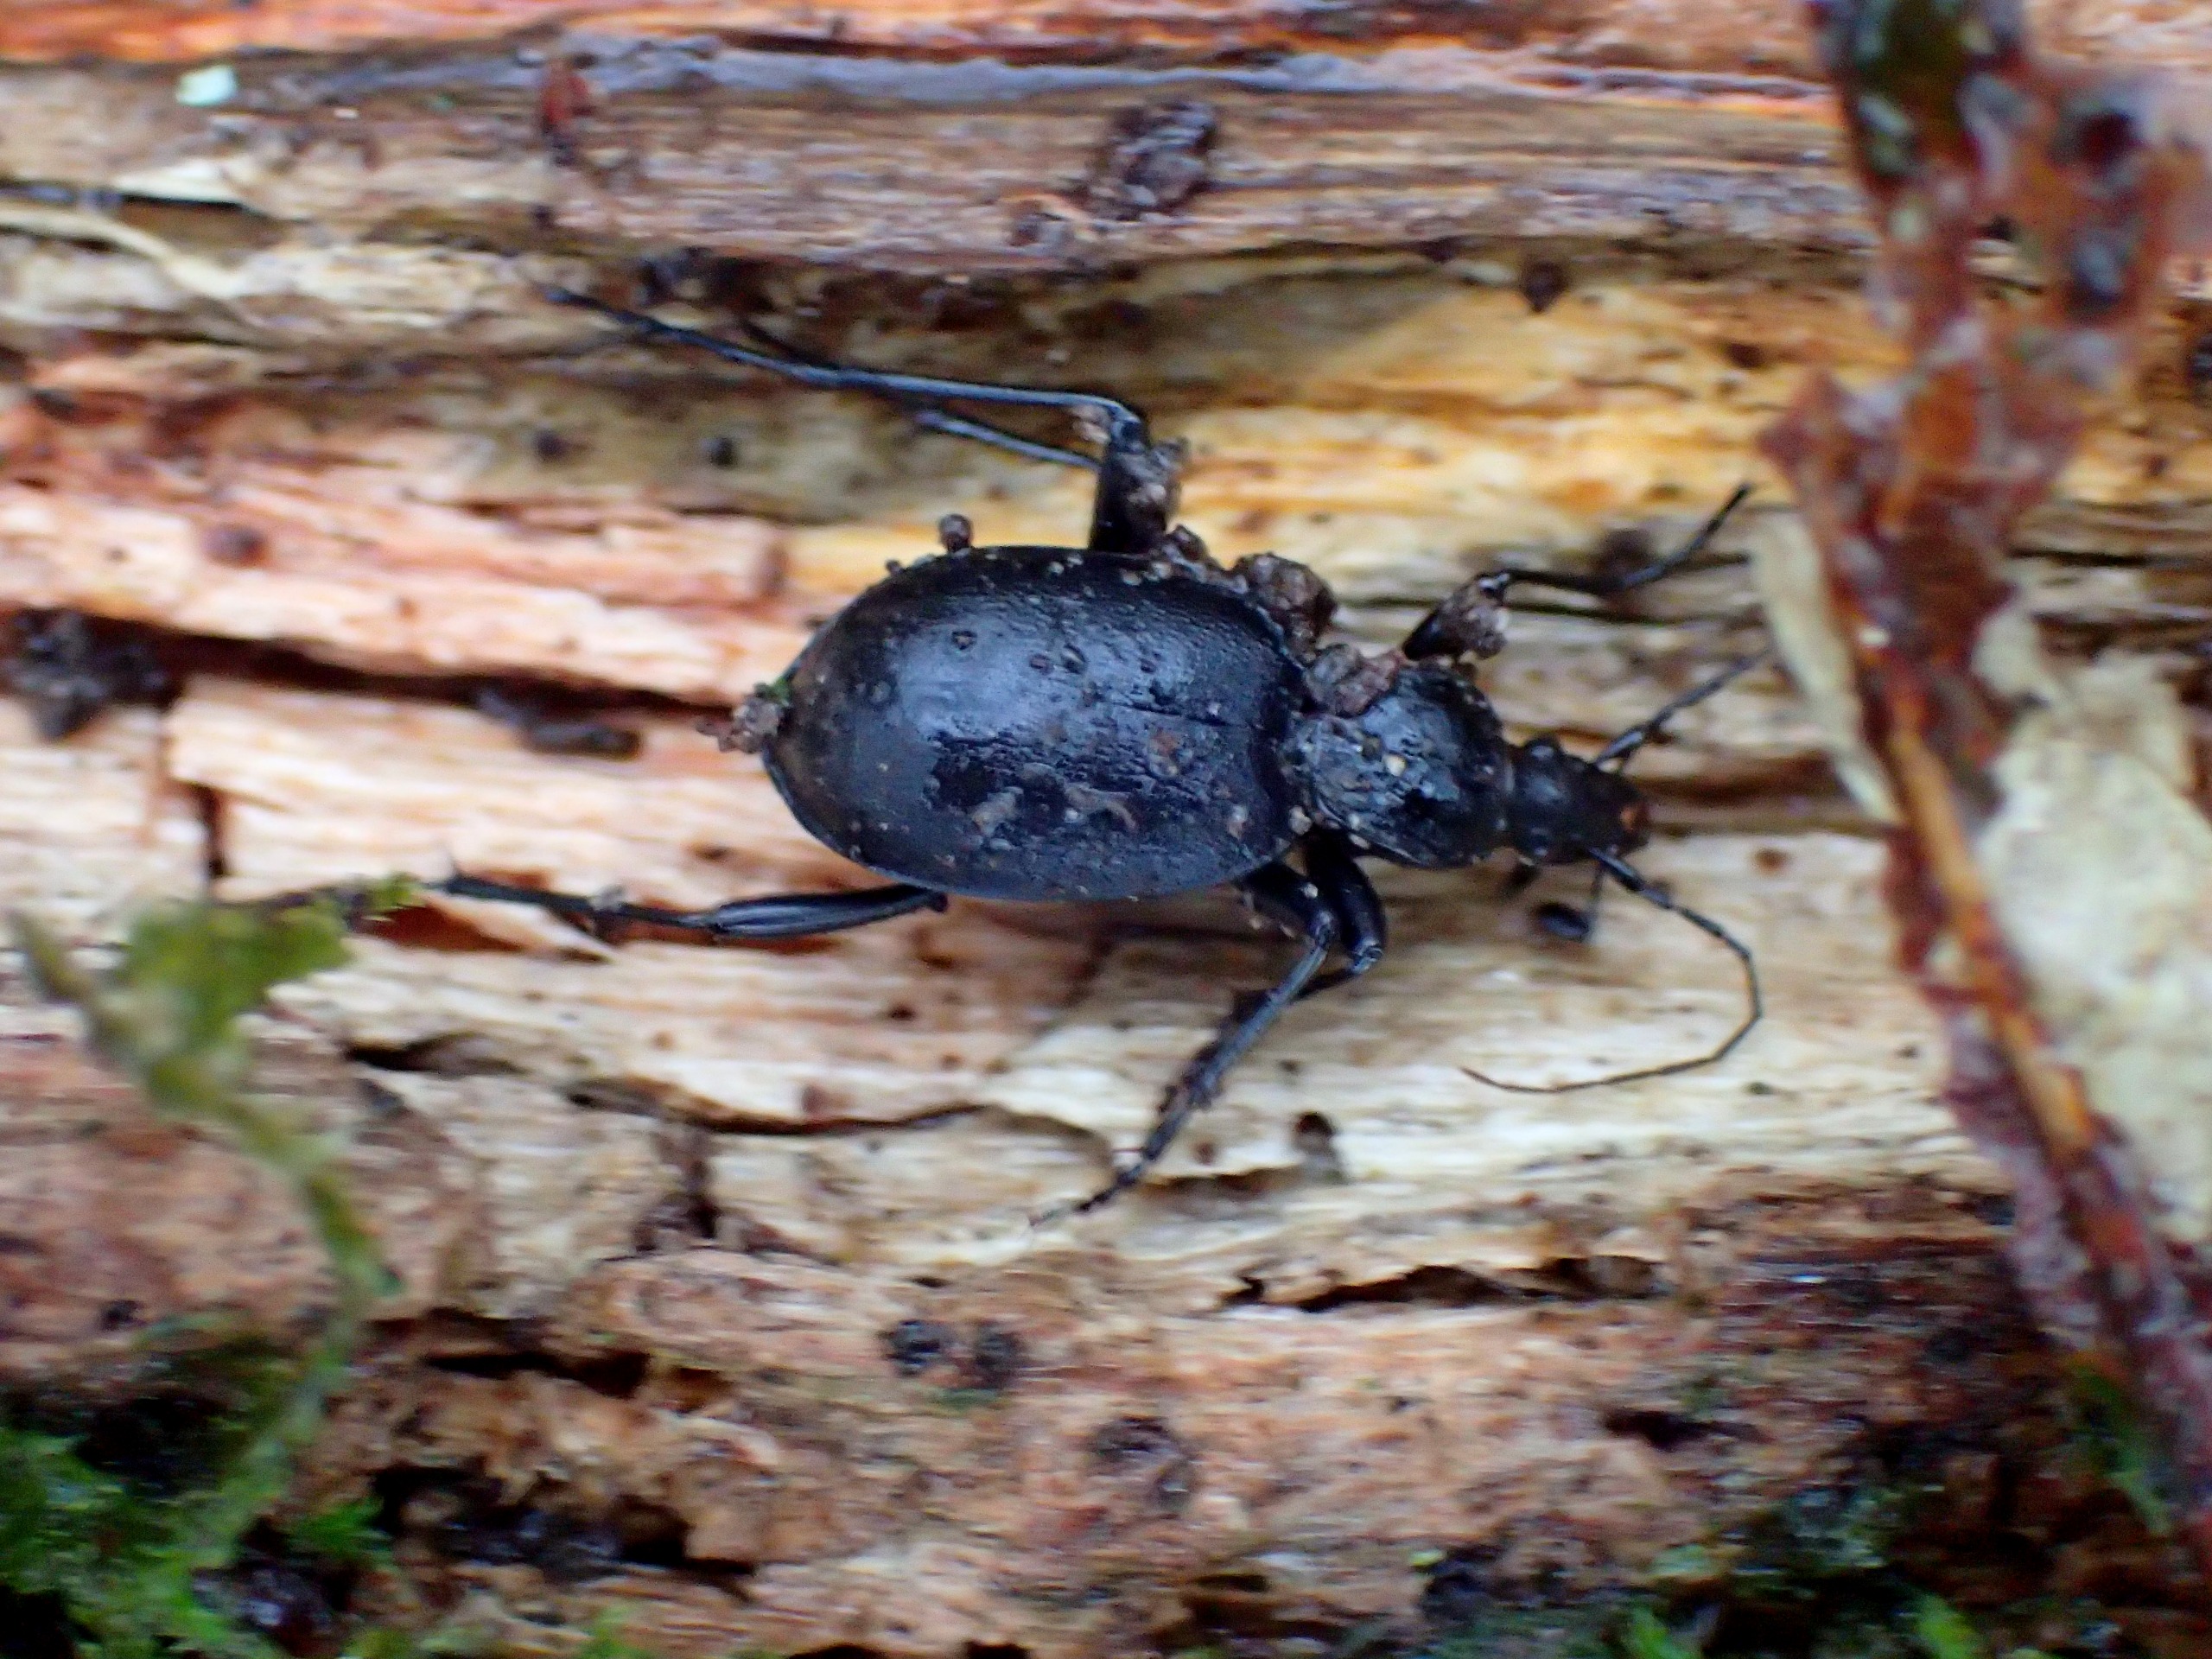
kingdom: Animalia
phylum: Arthropoda
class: Insecta
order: Coleoptera
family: Carabidae
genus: Cychrus
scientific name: Cychrus caraboides
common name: Sneglerøver
